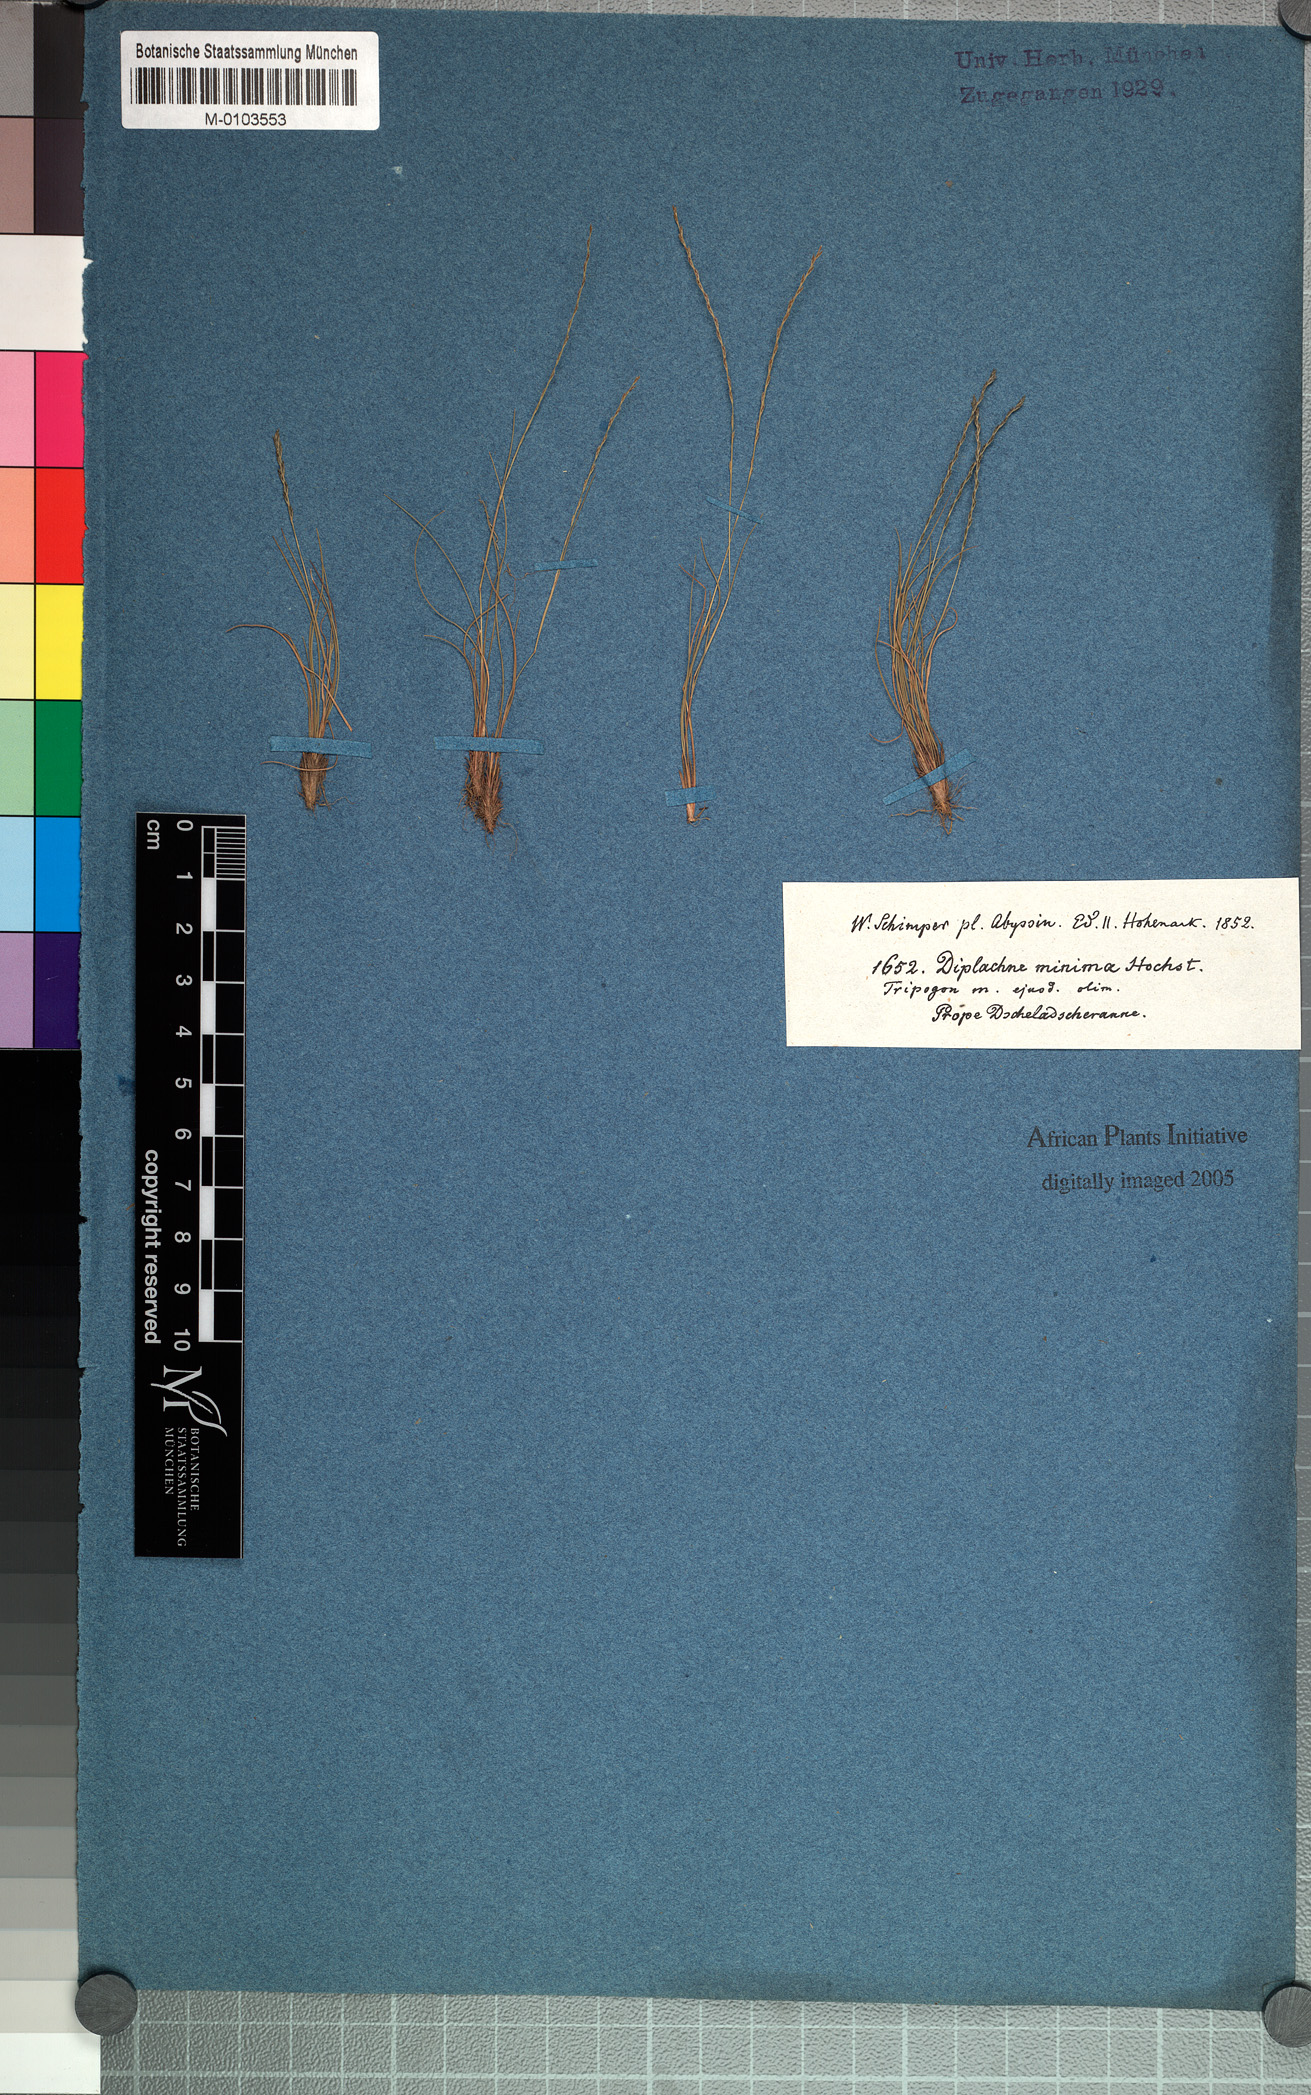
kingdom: Plantae
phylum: Tracheophyta
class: Liliopsida
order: Poales
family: Poaceae
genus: Tripogonella
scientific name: Tripogonella minima
